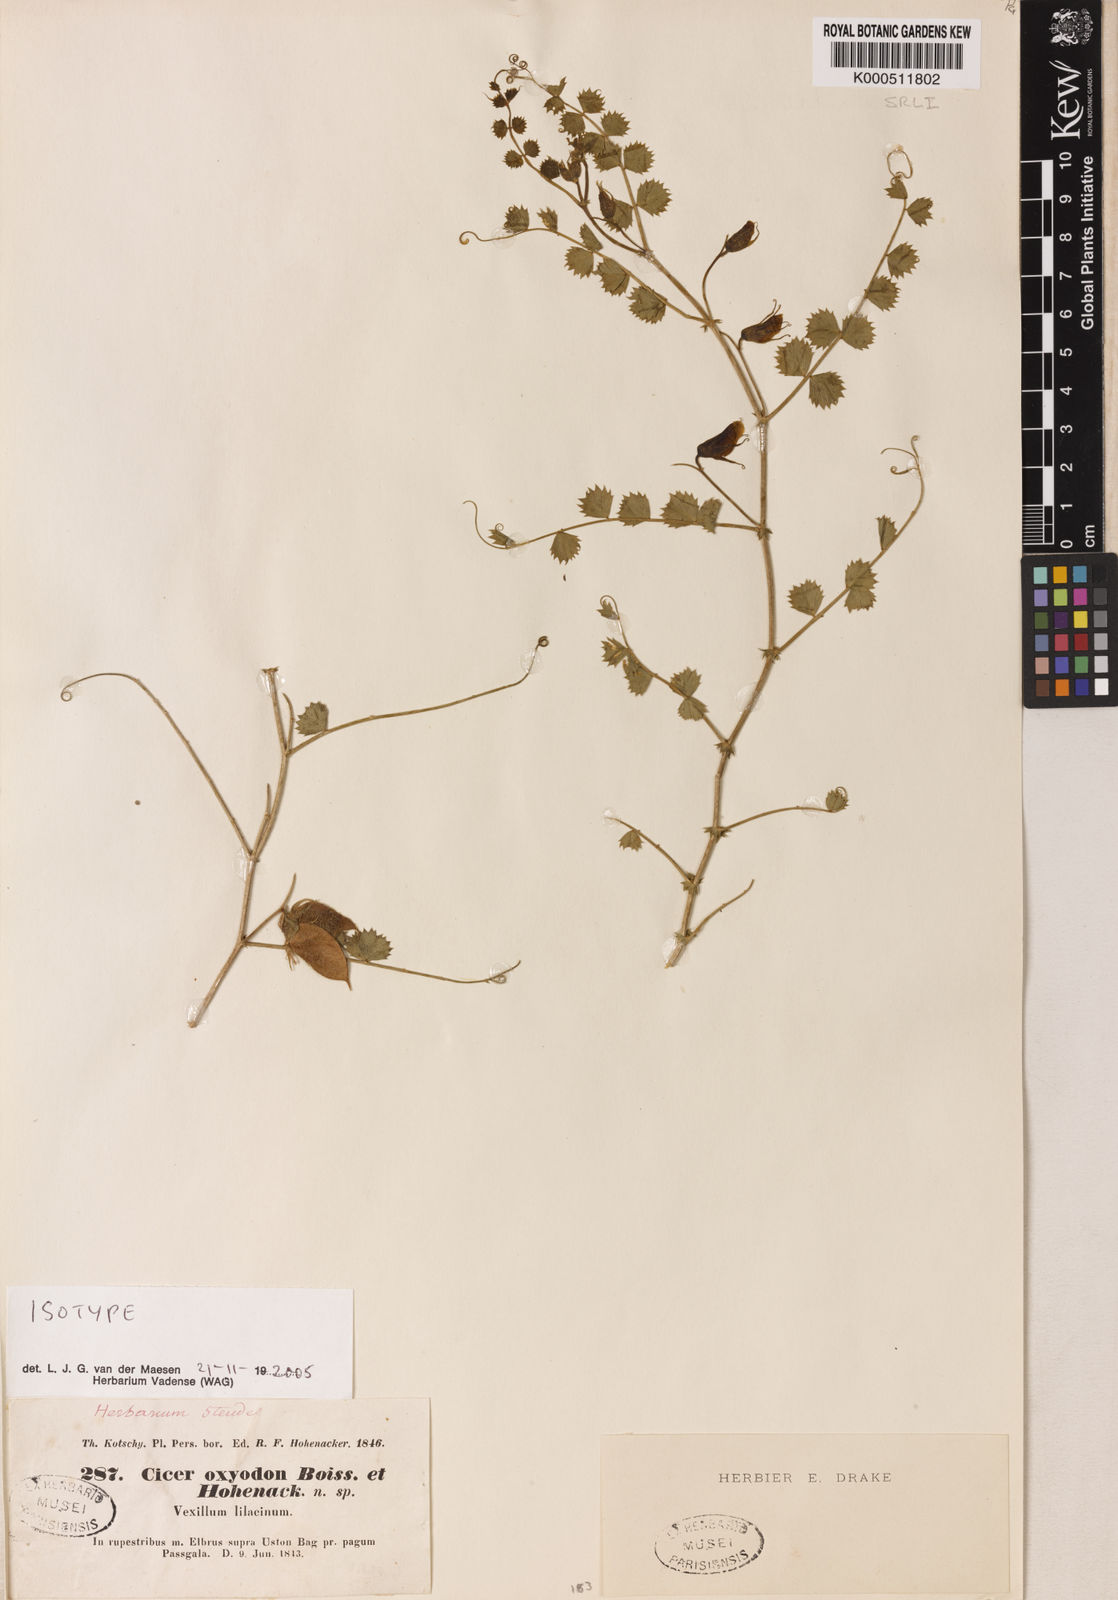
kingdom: Plantae
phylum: Tracheophyta
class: Magnoliopsida
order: Fabales
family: Fabaceae
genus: Cicer
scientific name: Cicer oxyodon
